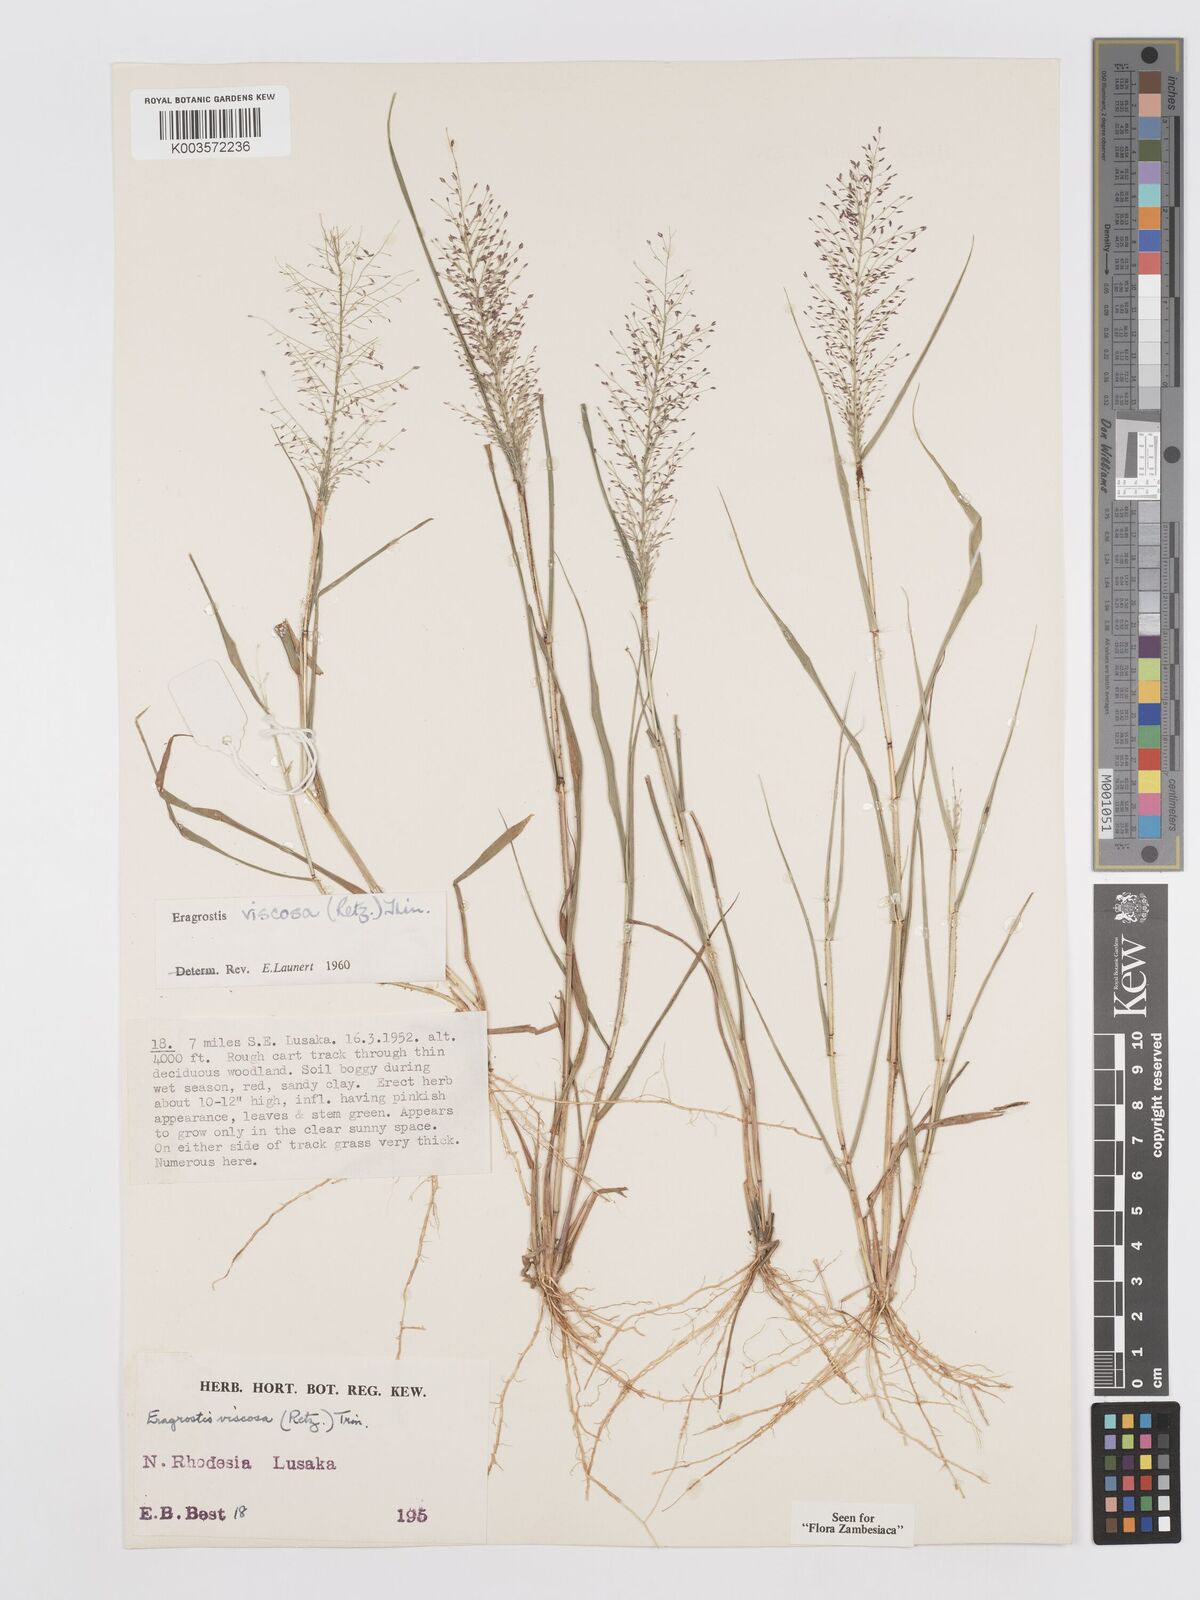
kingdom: Plantae
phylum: Tracheophyta
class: Liliopsida
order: Poales
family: Poaceae
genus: Eragrostis
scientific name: Eragrostis
